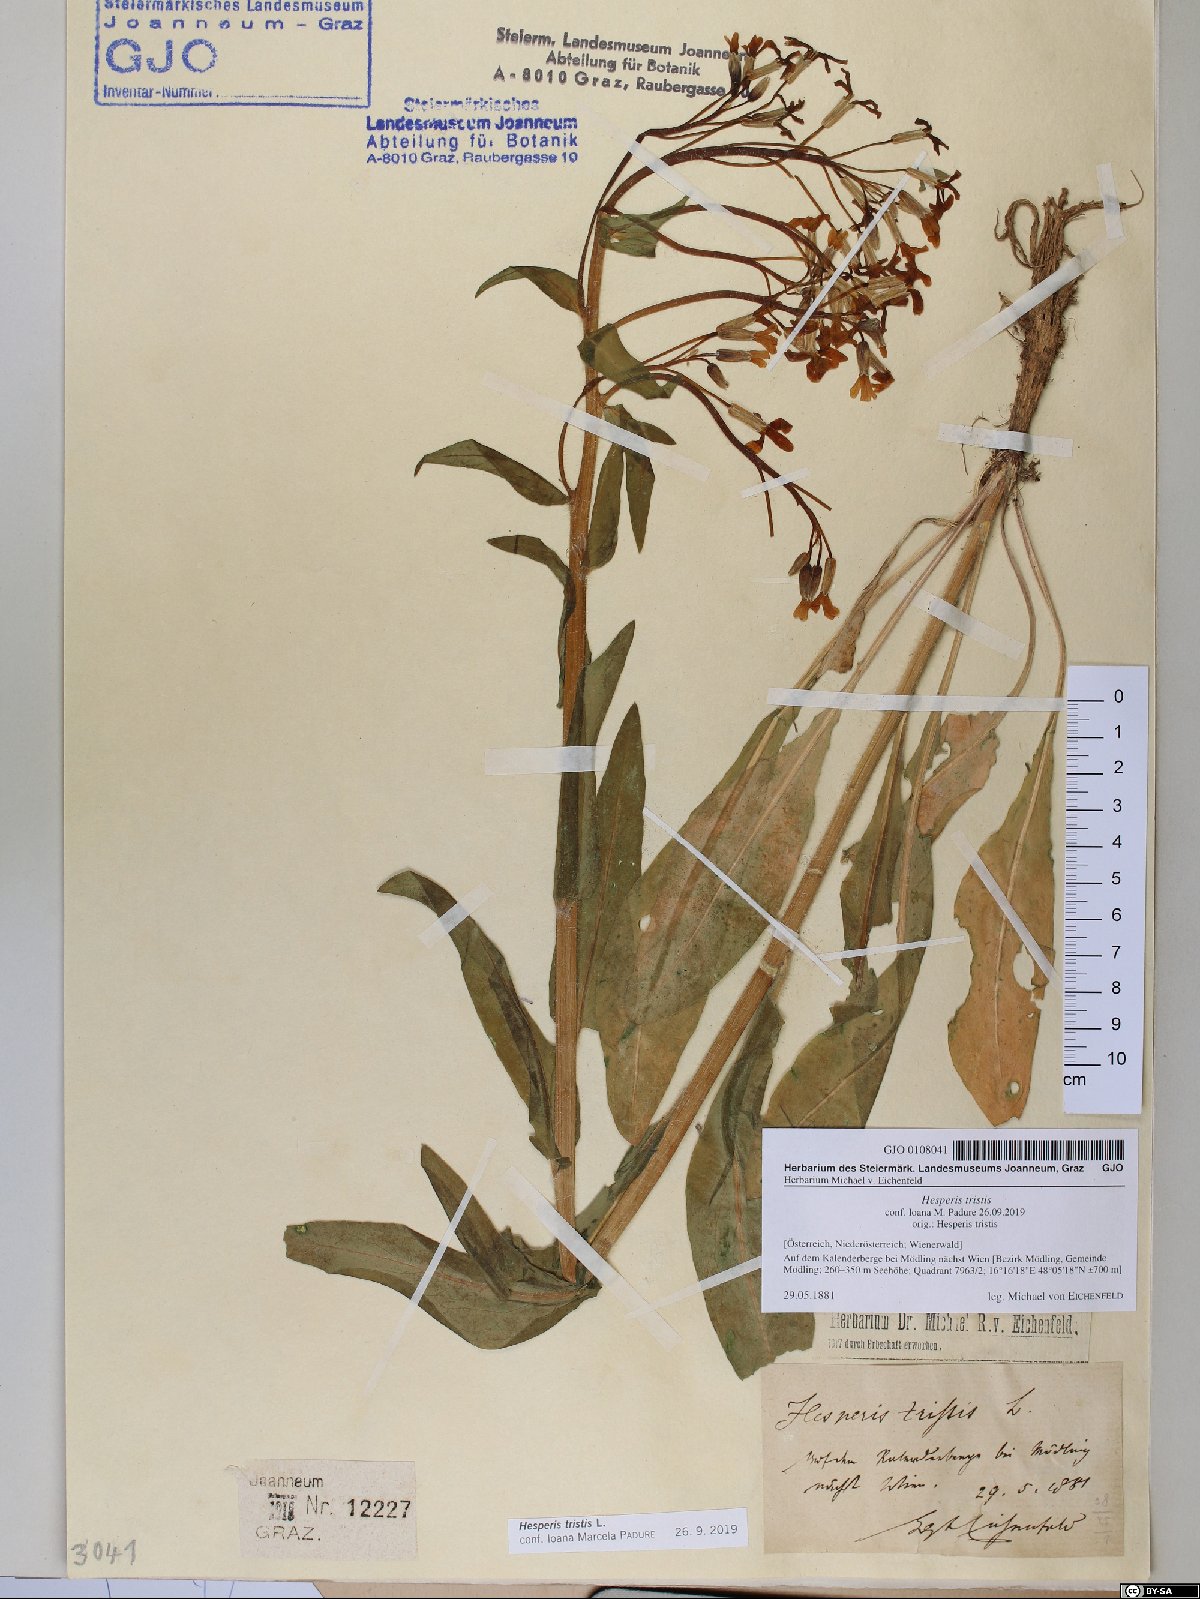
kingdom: Plantae
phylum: Tracheophyta
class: Magnoliopsida
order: Brassicales
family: Brassicaceae
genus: Hesperis
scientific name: Hesperis tristis
